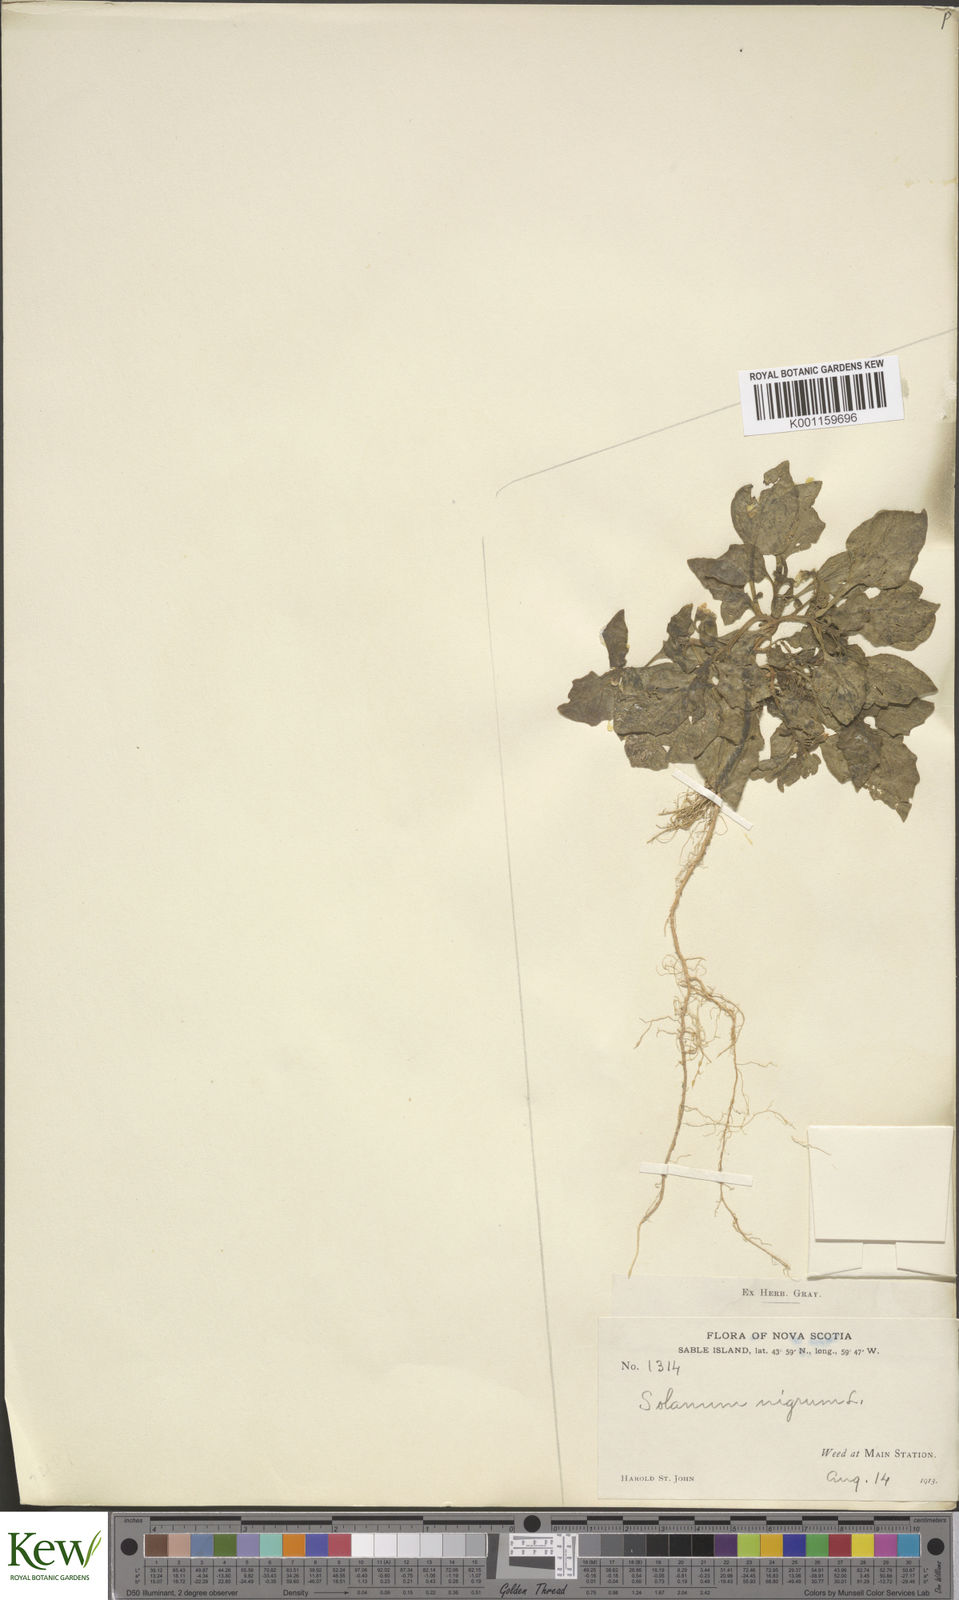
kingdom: Plantae
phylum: Tracheophyta
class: Magnoliopsida
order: Solanales
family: Solanaceae
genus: Solanum
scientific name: Solanum nigrum
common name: Black nightshade
